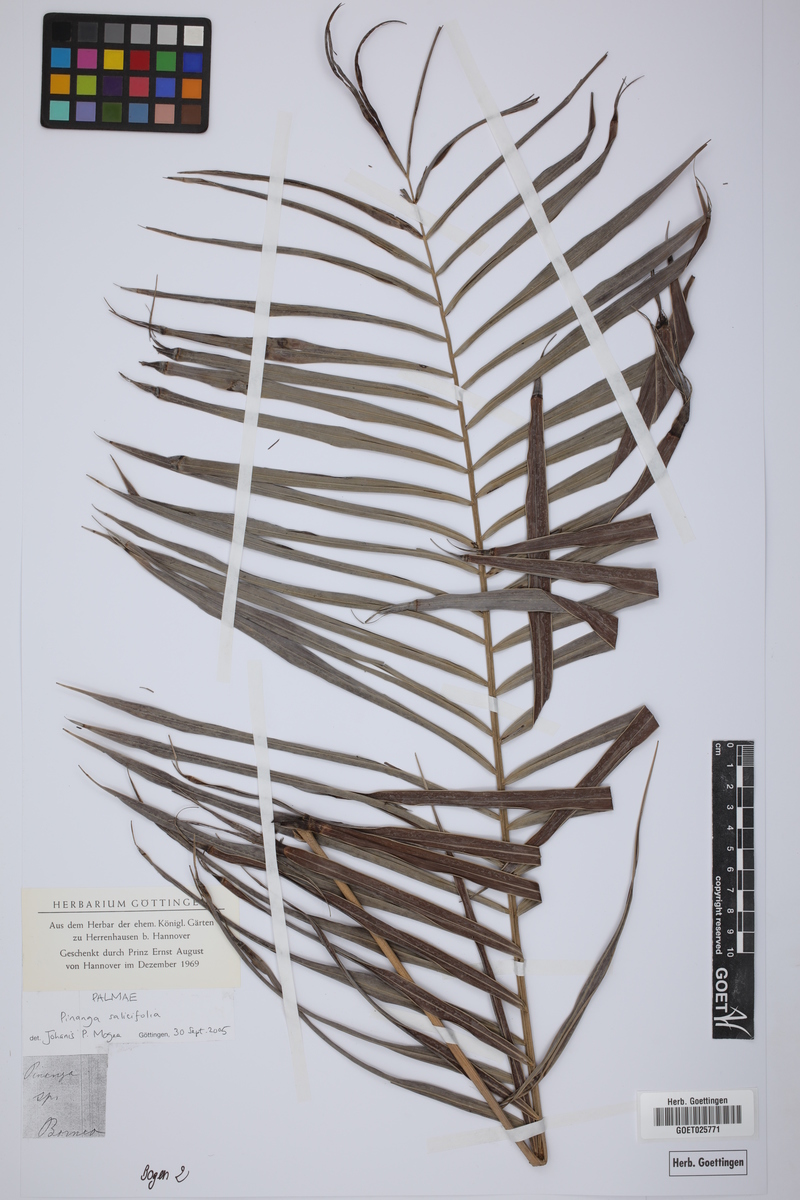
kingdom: Plantae
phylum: Tracheophyta
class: Liliopsida
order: Arecales
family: Arecaceae
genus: Pinanga
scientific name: Pinanga salicifolia
